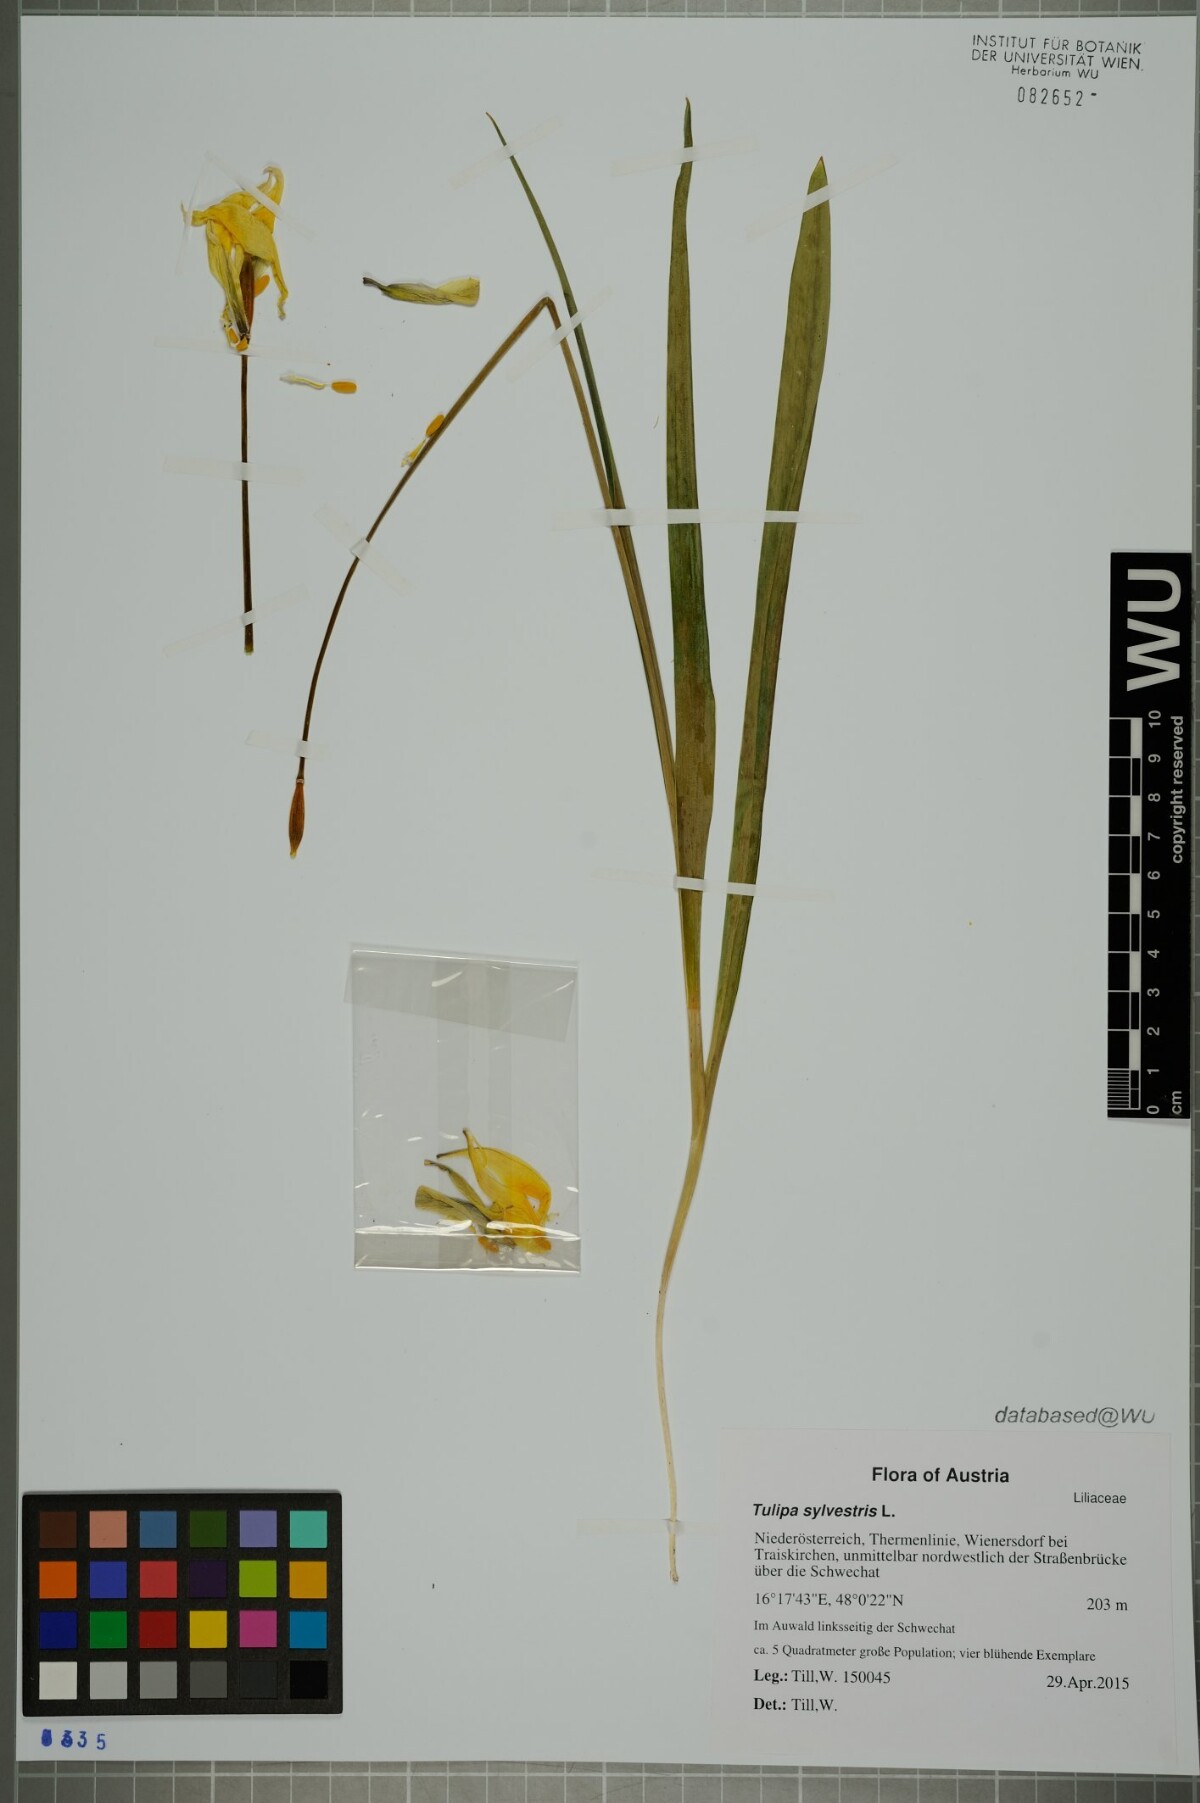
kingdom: Plantae
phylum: Tracheophyta
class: Liliopsida
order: Liliales
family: Liliaceae
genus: Tulipa
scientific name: Tulipa sylvestris
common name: Wild tulip
